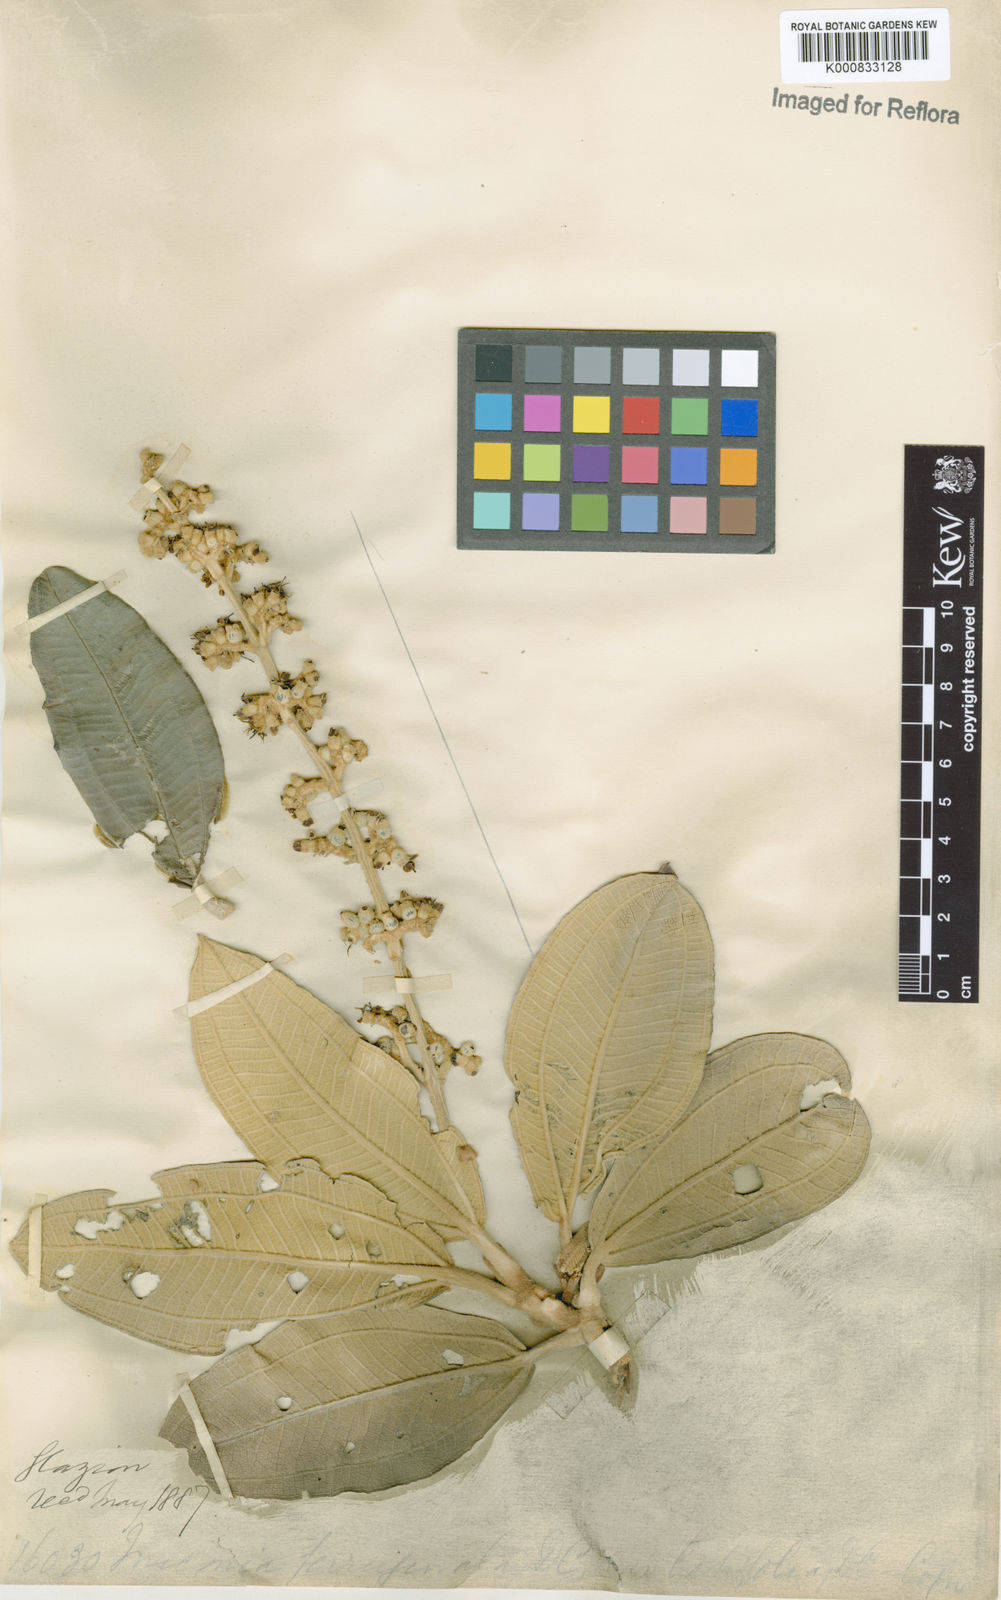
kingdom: Plantae
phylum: Tracheophyta
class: Magnoliopsida
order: Myrtales
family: Melastomataceae
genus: Miconia
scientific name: Miconia ferruginata
